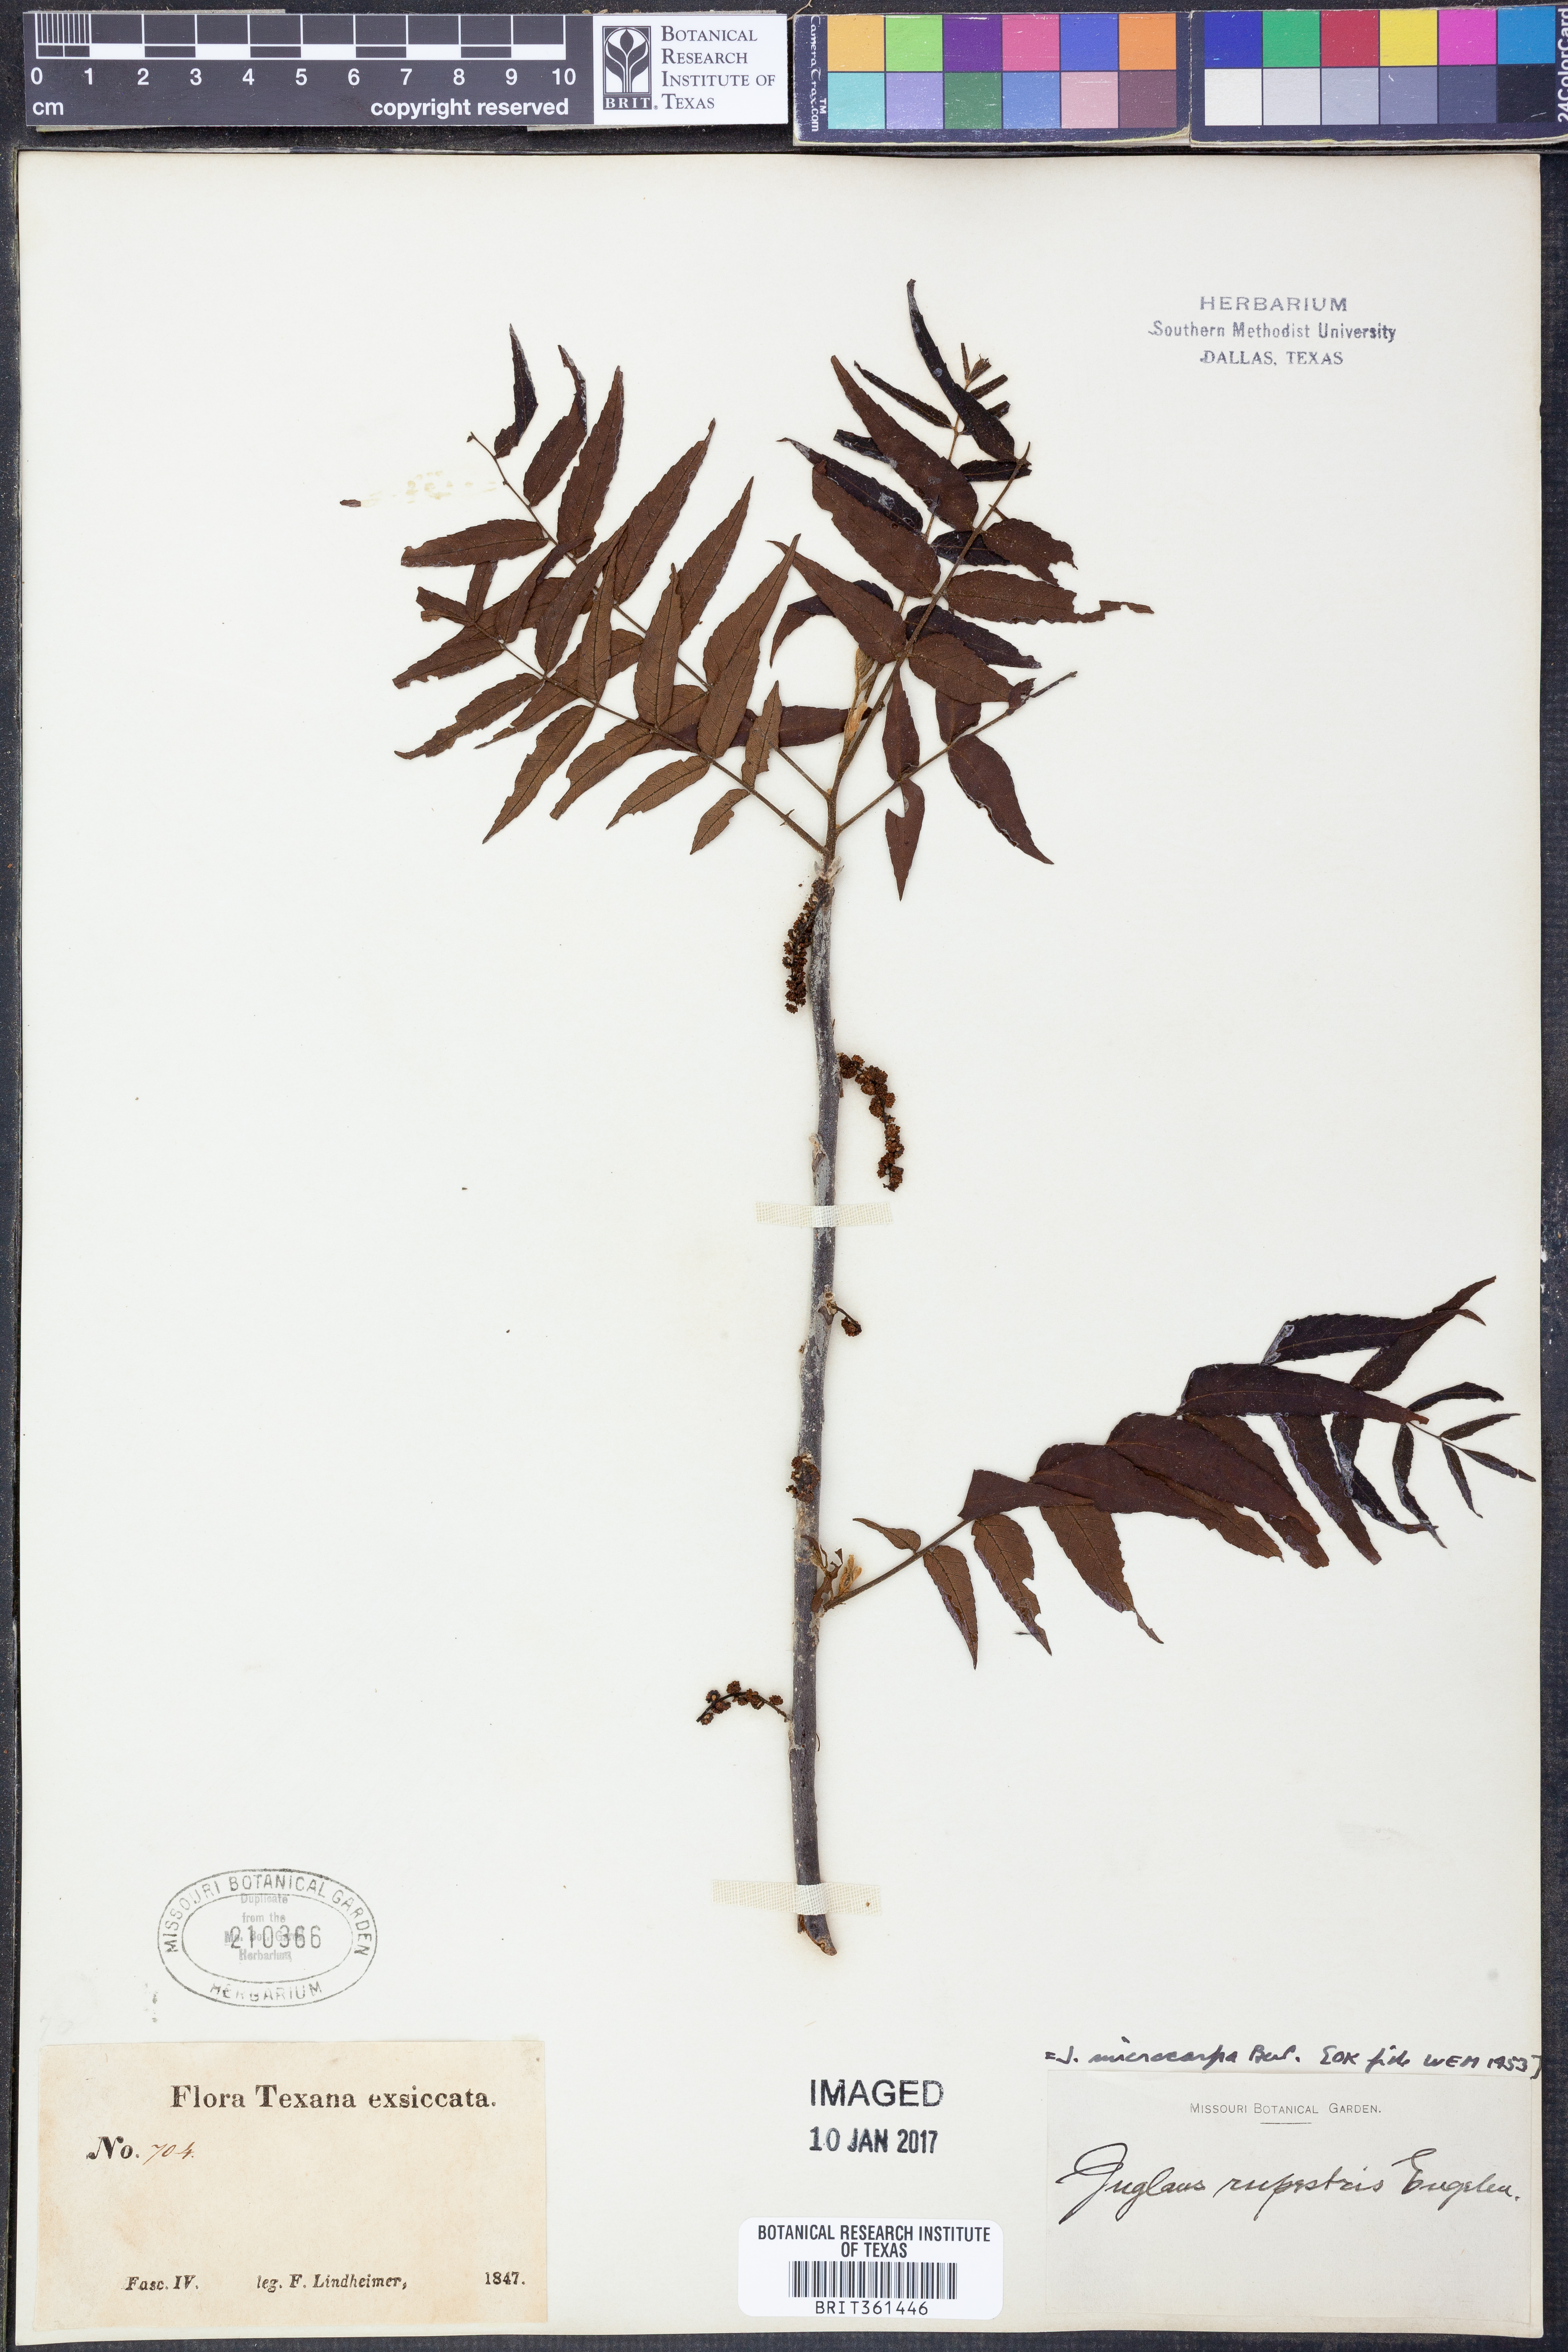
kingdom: Plantae
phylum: Tracheophyta
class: Magnoliopsida
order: Fagales
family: Juglandaceae
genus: Juglans
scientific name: Juglans microcarpa
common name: Texas walnut
